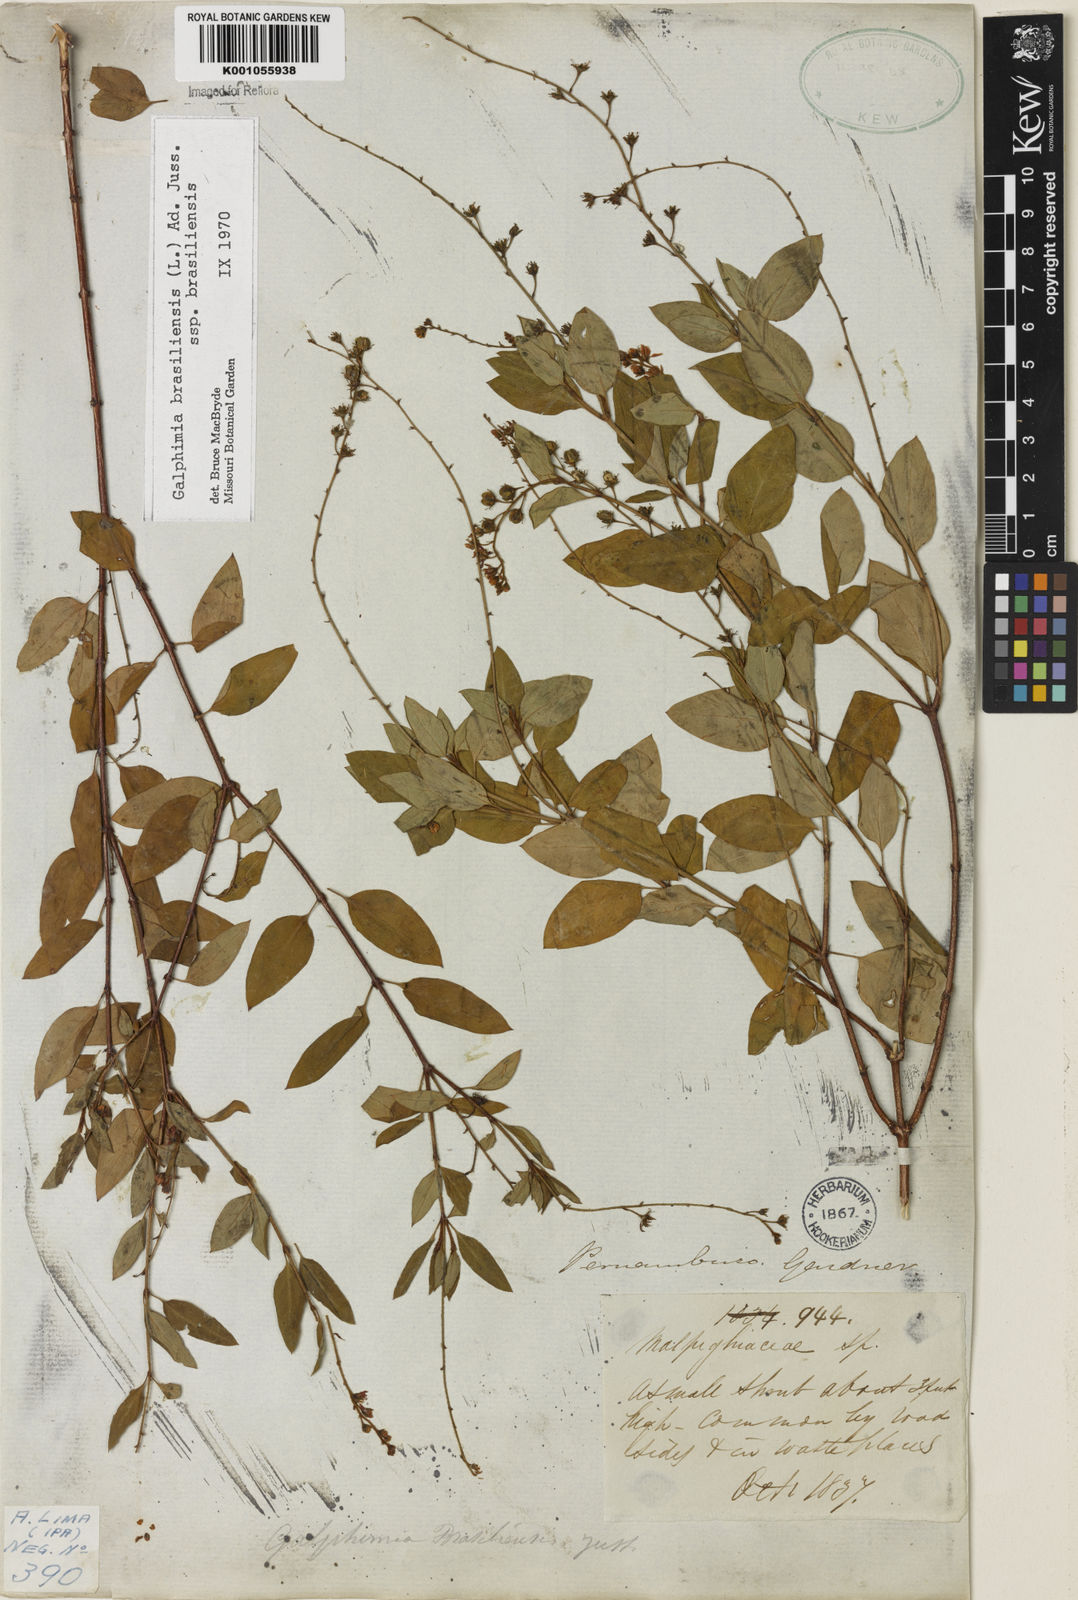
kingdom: Plantae
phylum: Tracheophyta
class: Magnoliopsida
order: Malpighiales
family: Malpighiaceae
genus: Galphimia
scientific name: Galphimia brasiliensis
